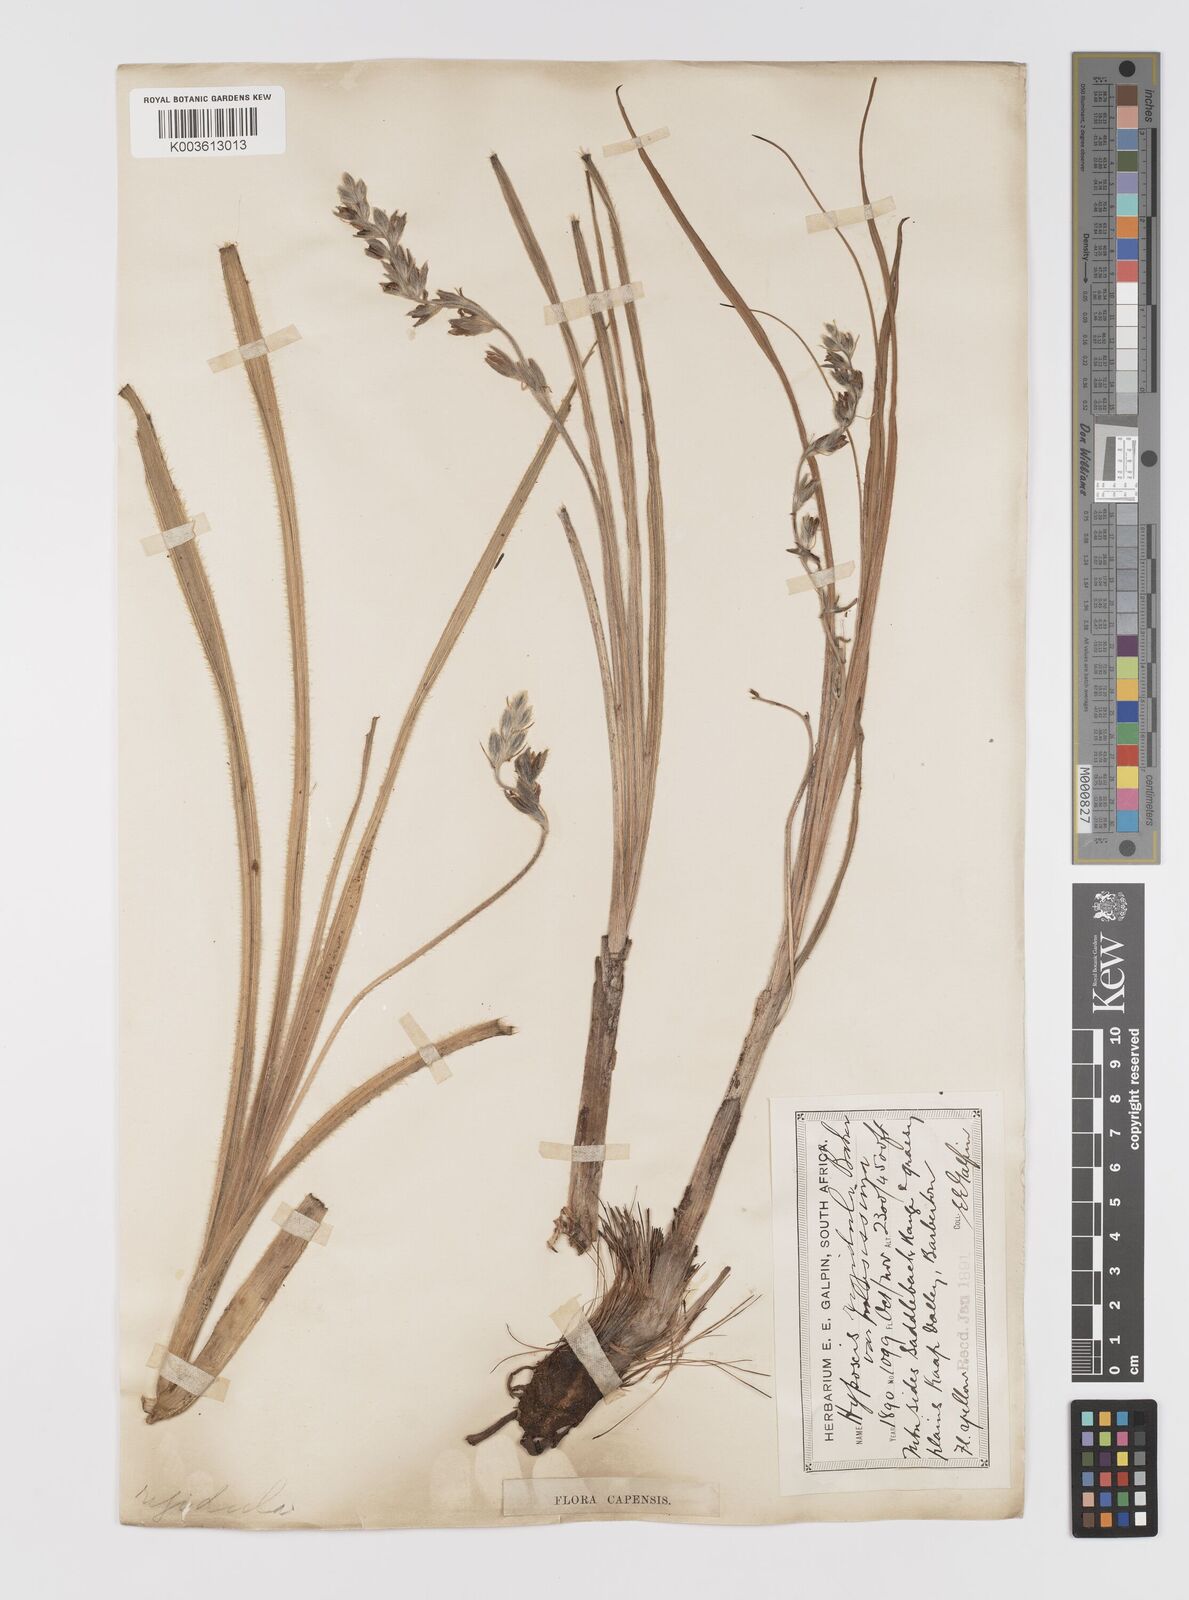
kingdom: Plantae
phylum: Tracheophyta
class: Liliopsida
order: Asparagales
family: Hypoxidaceae
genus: Hypoxis
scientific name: Hypoxis rigidula
